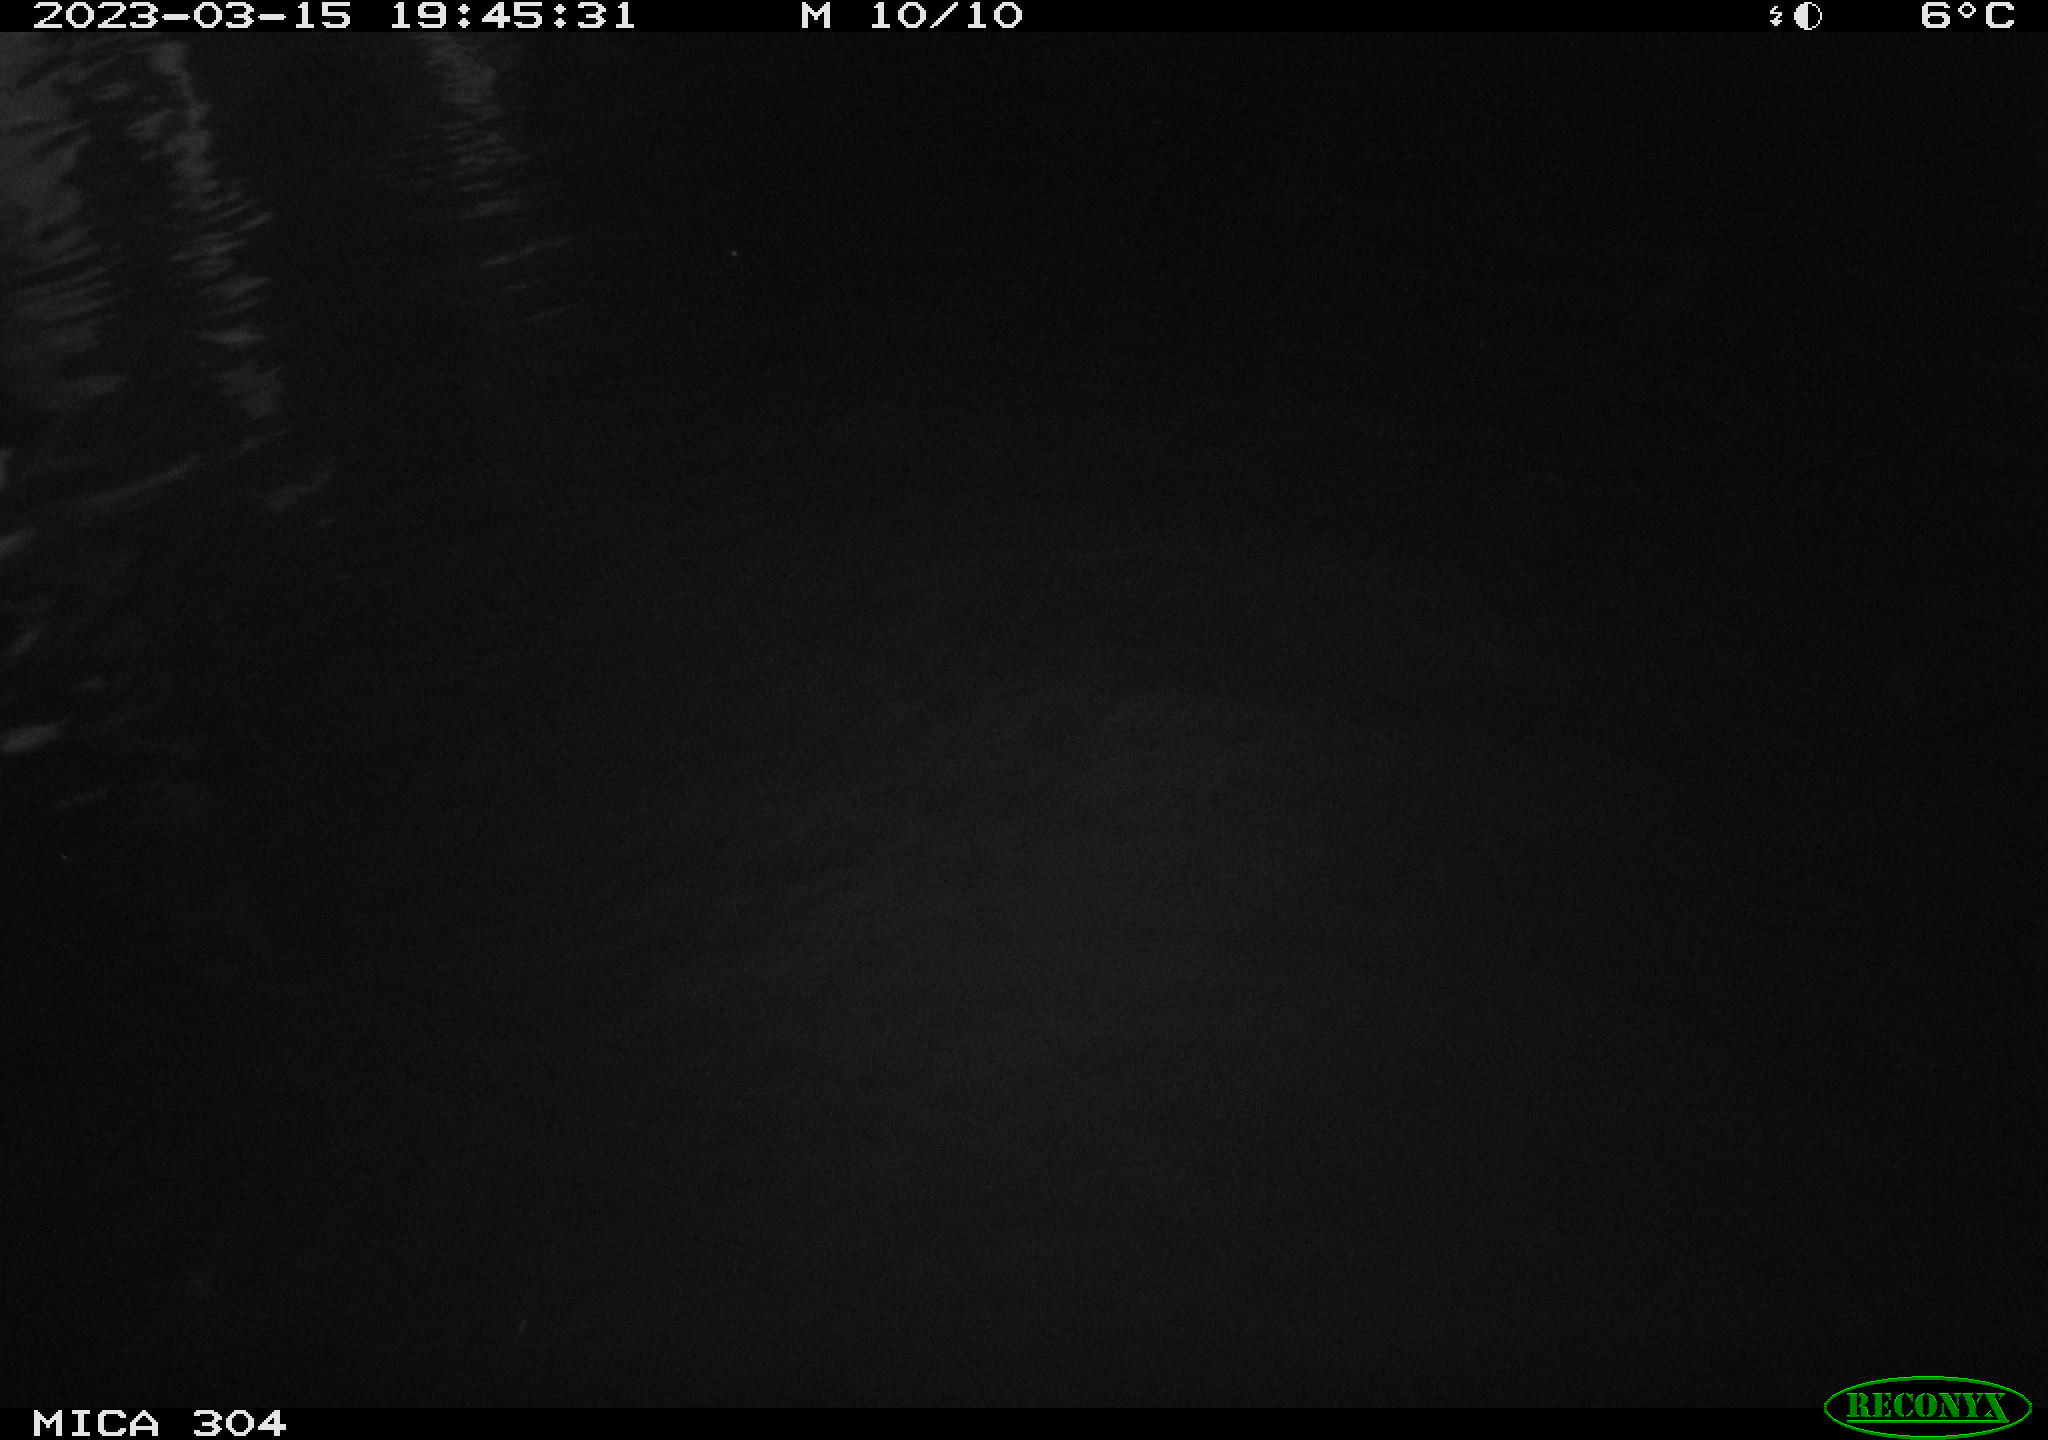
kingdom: Animalia
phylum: Chordata
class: Mammalia
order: Rodentia
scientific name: Rodentia
